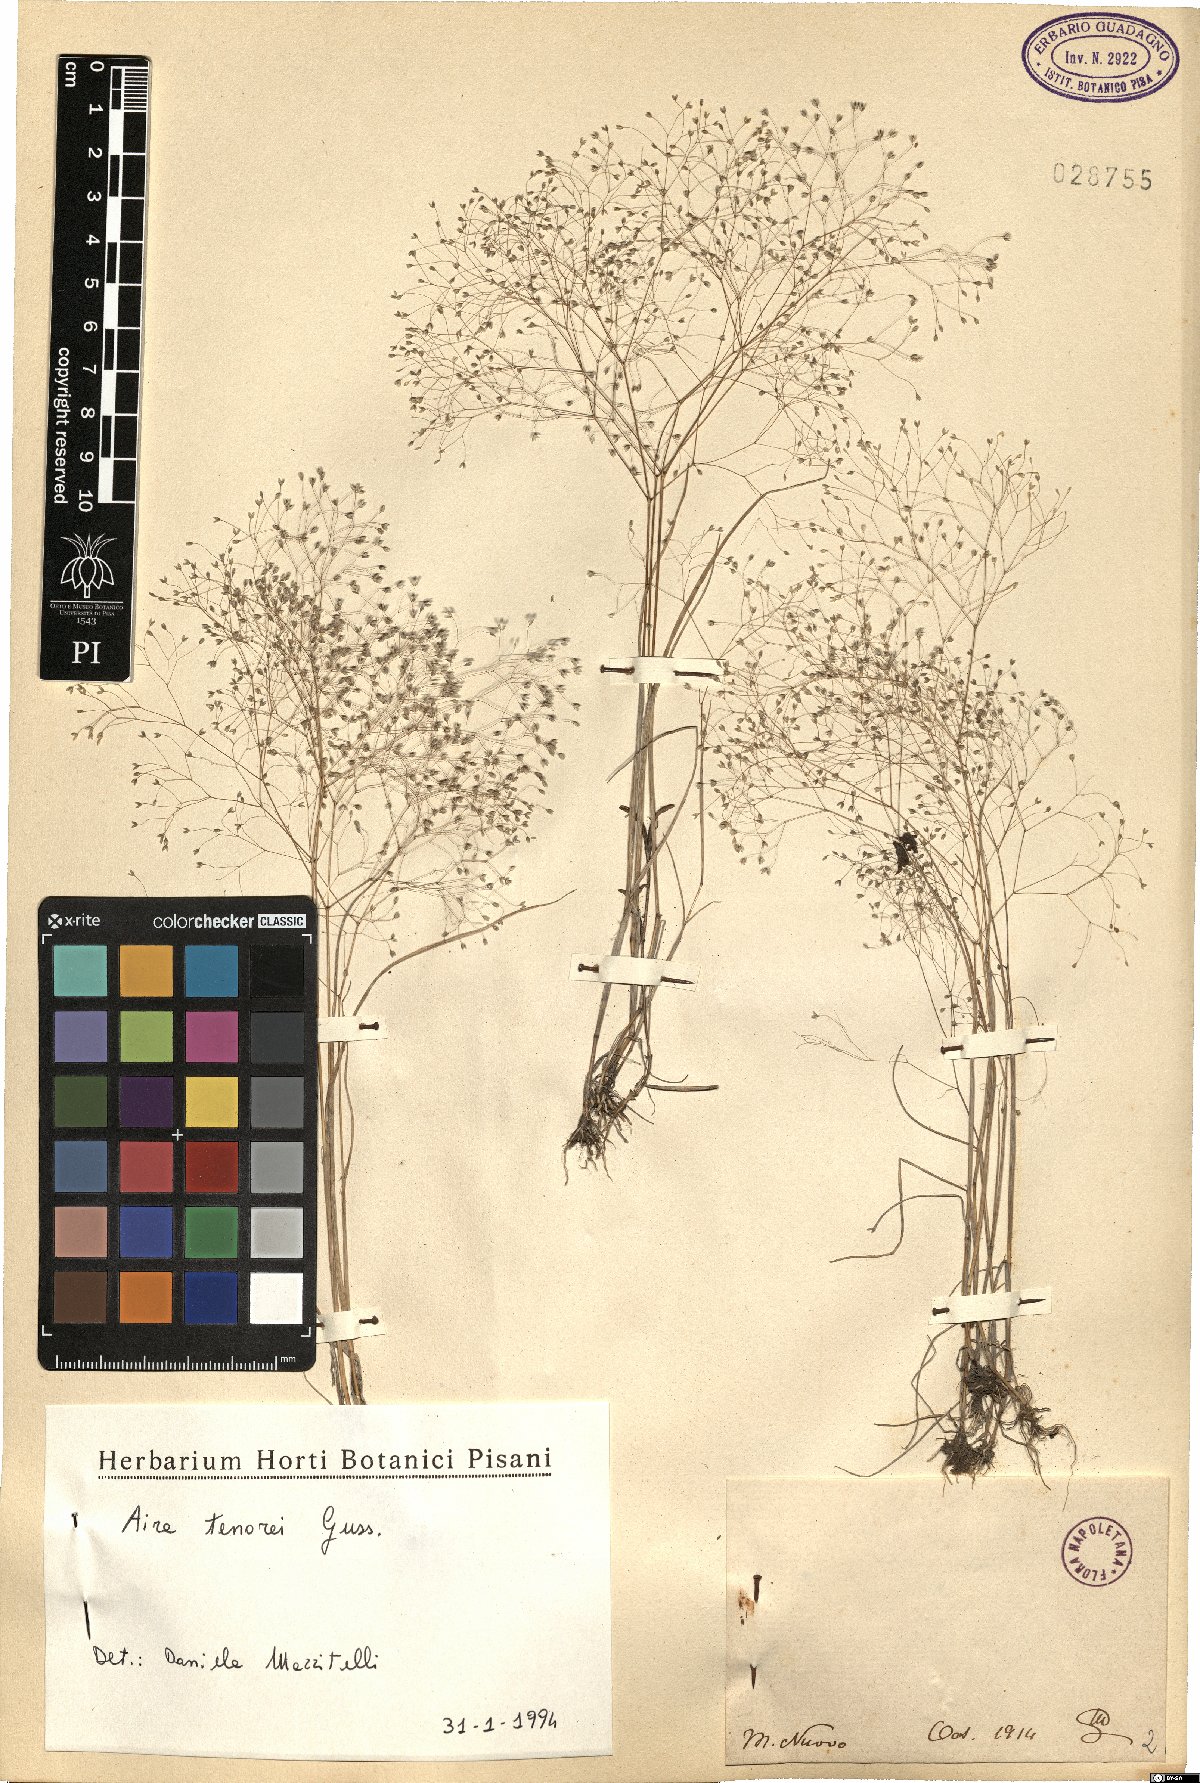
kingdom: Plantae
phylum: Tracheophyta
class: Liliopsida
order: Poales
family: Poaceae
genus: Aira
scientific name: Aira tenorei
